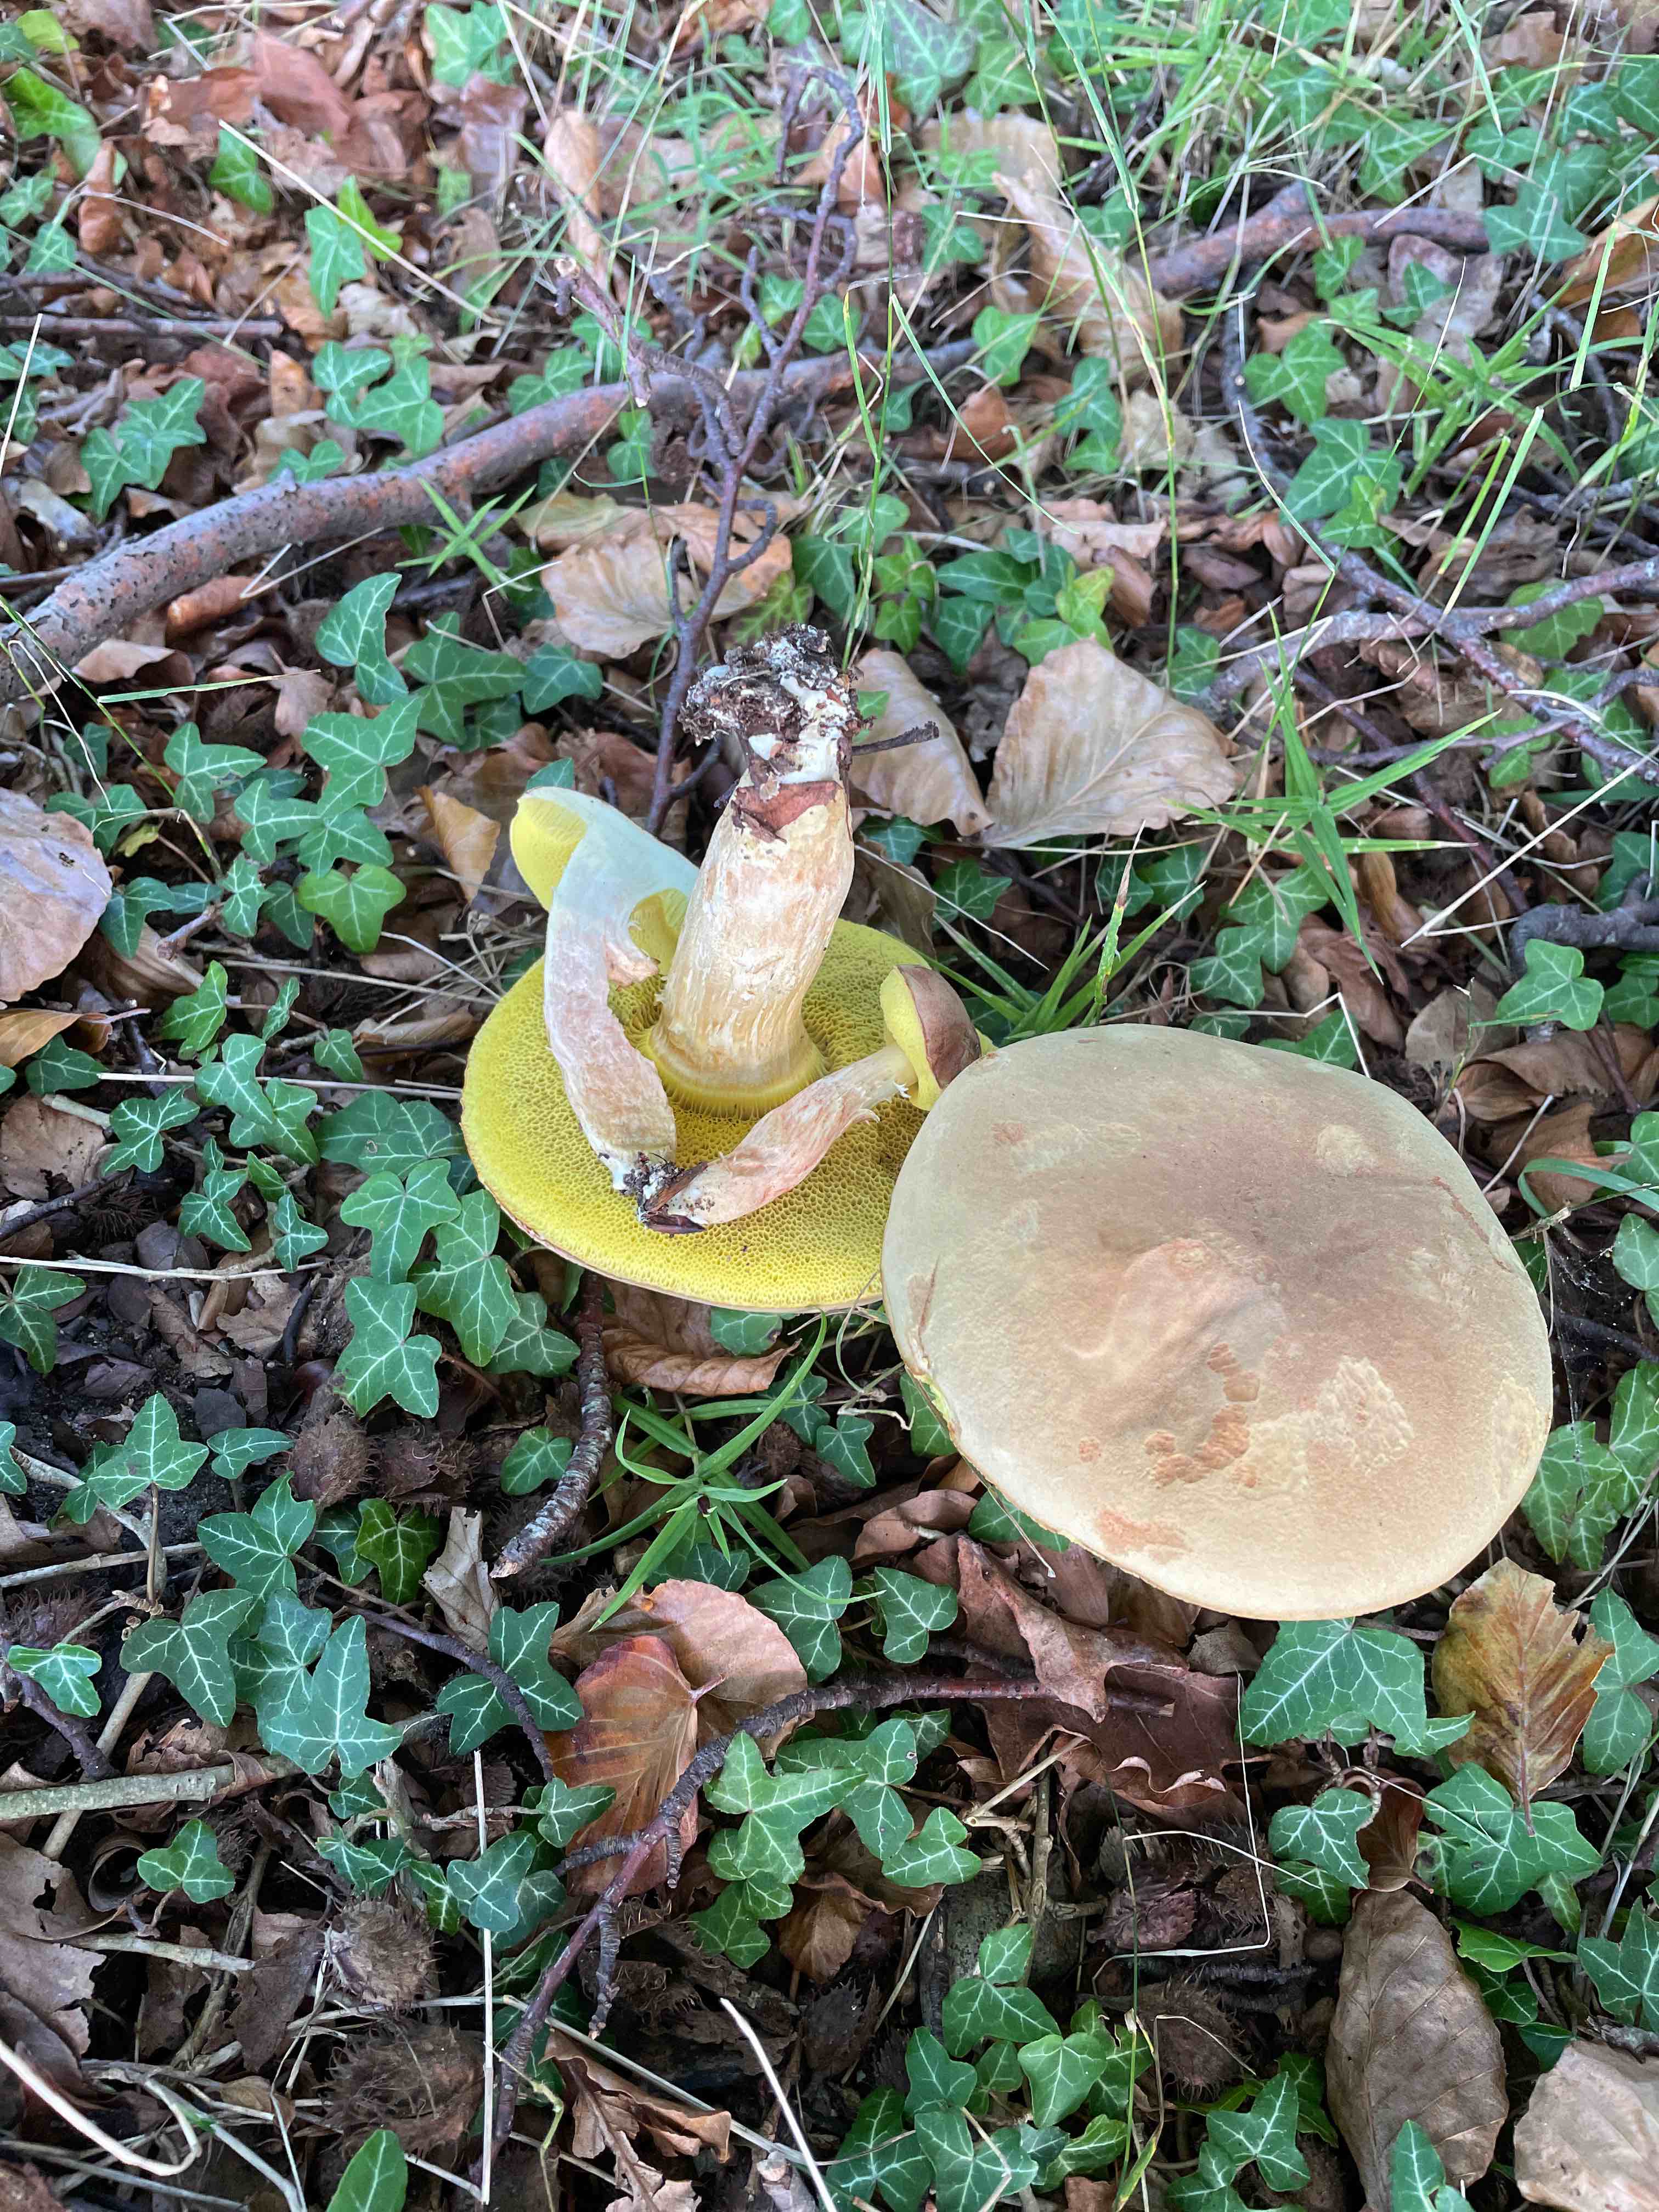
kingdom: Fungi
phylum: Basidiomycota
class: Agaricomycetes
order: Boletales
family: Boletaceae
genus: Xerocomus
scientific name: Xerocomus ferrugineus
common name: vaskeskinds-rørhat
